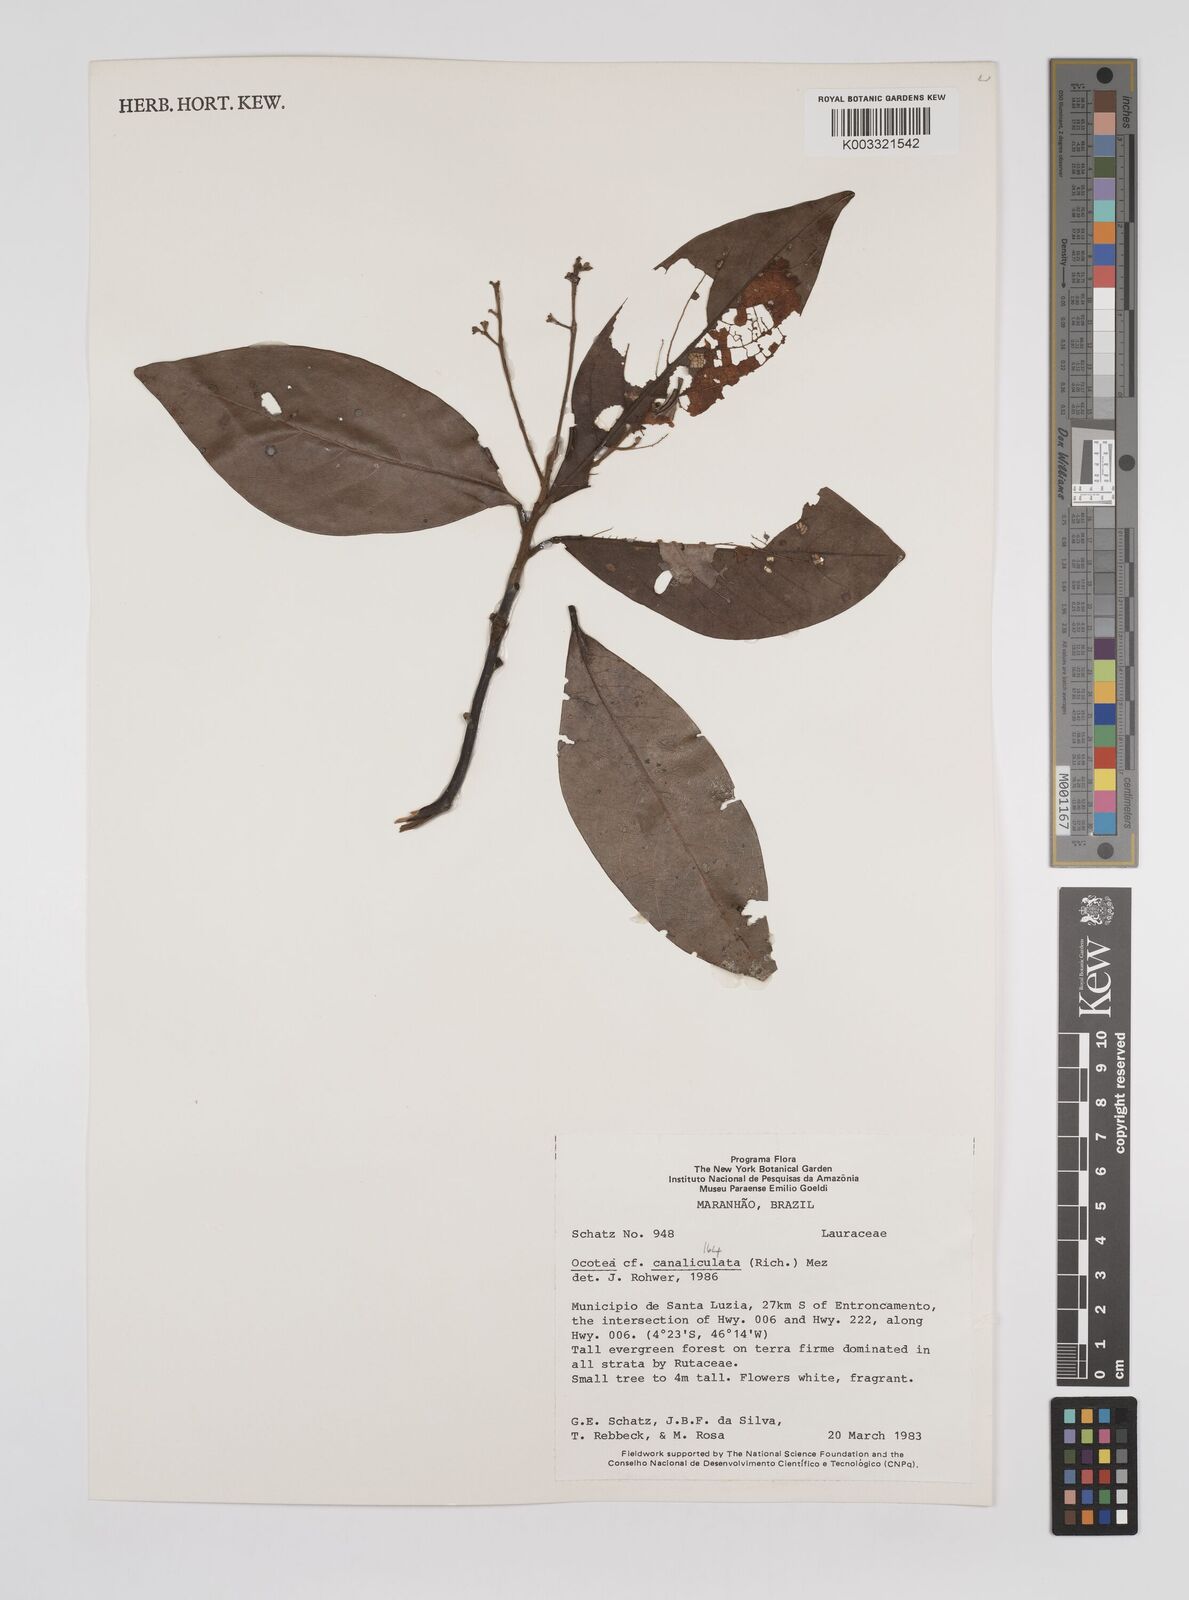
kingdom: Plantae
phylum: Tracheophyta
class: Magnoliopsida
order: Laurales
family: Lauraceae
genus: Ocotea
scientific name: Ocotea canaliculata
